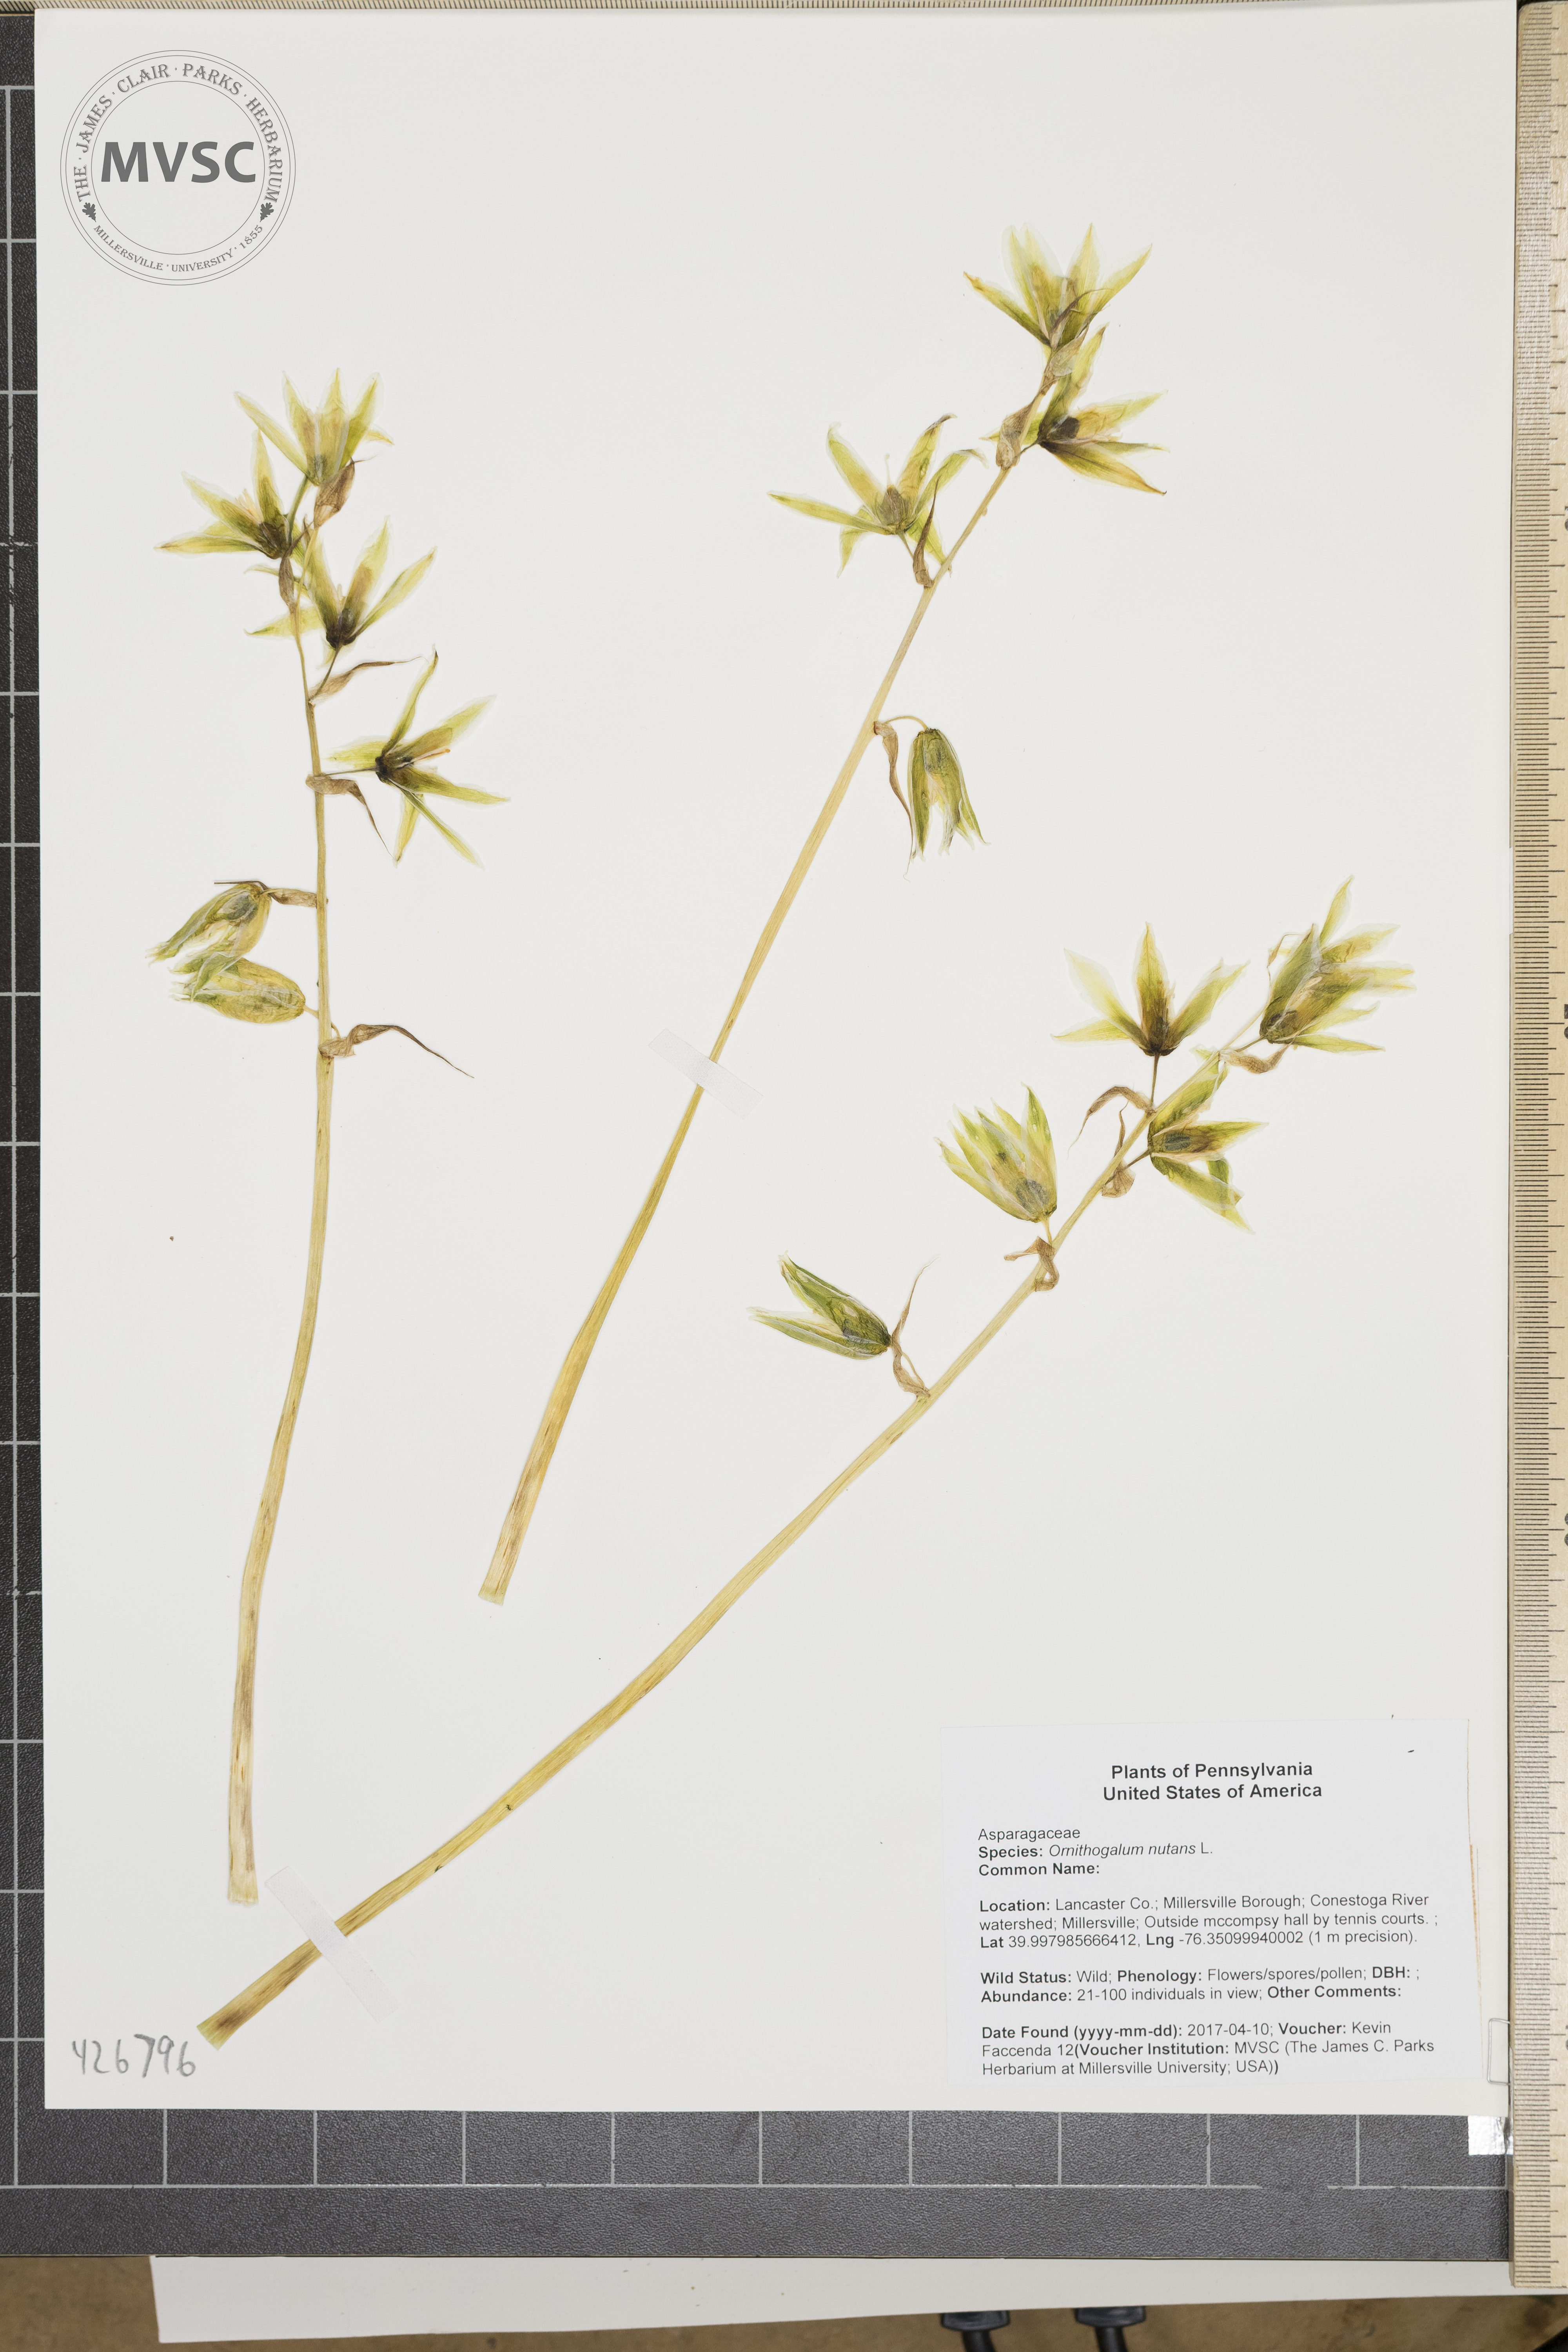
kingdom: Plantae
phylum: Tracheophyta
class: Liliopsida
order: Asparagales
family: Asparagaceae
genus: Ornithogalum
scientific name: Ornithogalum nutans
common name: Drooping star-of-bethlehem
